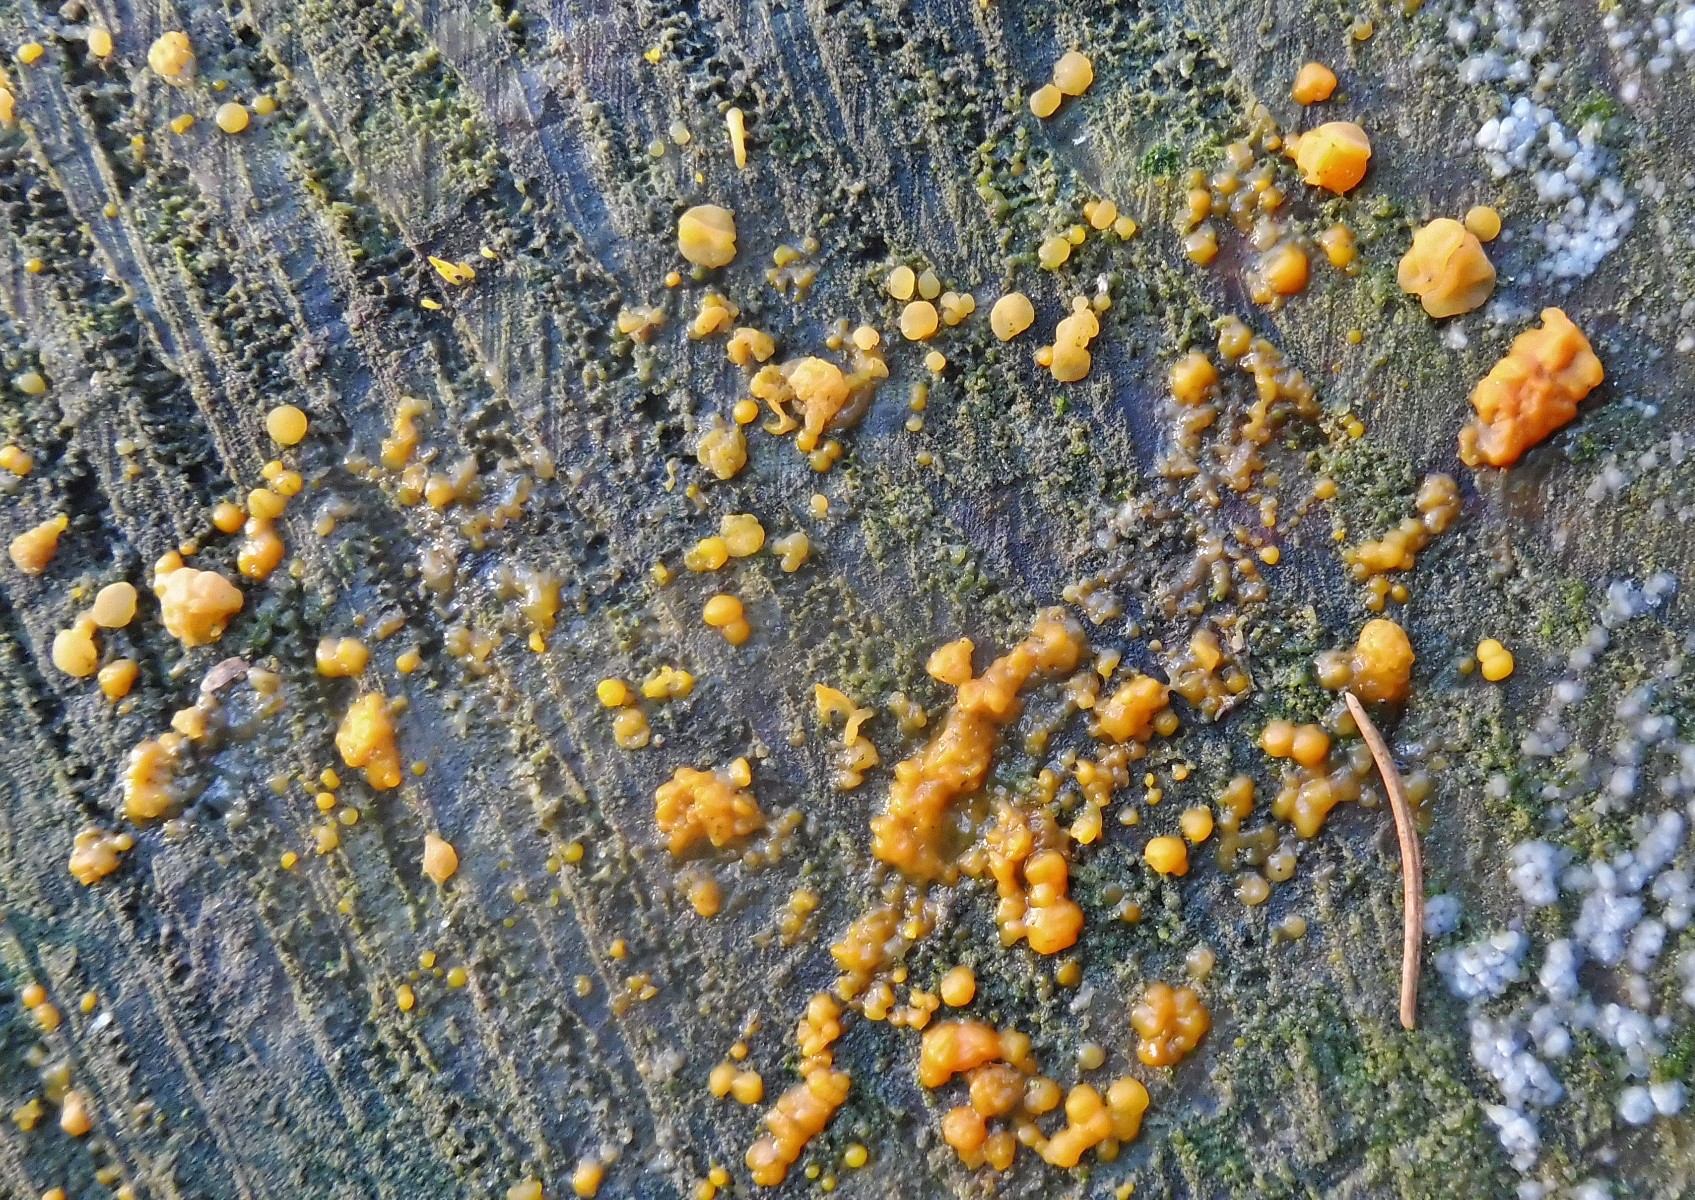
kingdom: Fungi
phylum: Basidiomycota
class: Dacrymycetes
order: Dacrymycetales
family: Dacrymycetaceae
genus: Dacrymyces
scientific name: Dacrymyces stillatus
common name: almindelig tåresvamp
